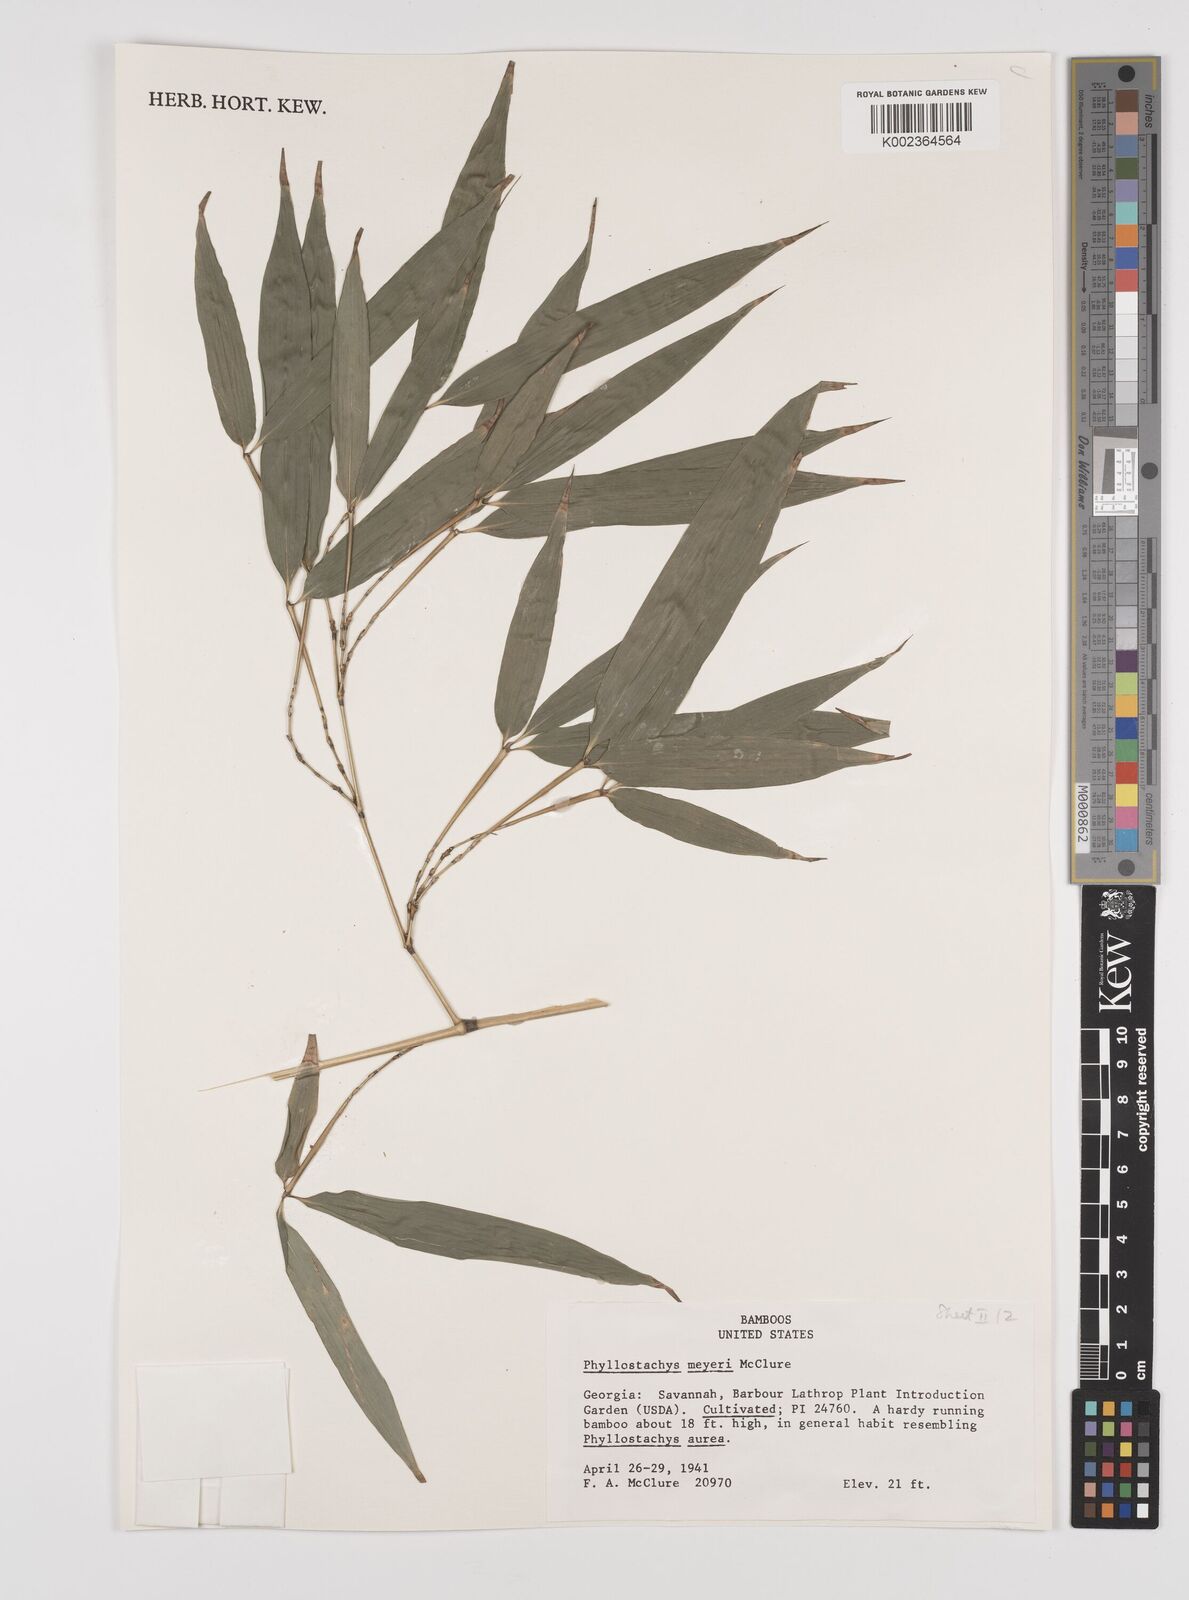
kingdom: Plantae
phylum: Tracheophyta
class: Liliopsida
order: Poales
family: Poaceae
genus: Phyllostachys
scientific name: Phyllostachys meyeri
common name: Meyer's bamboo
